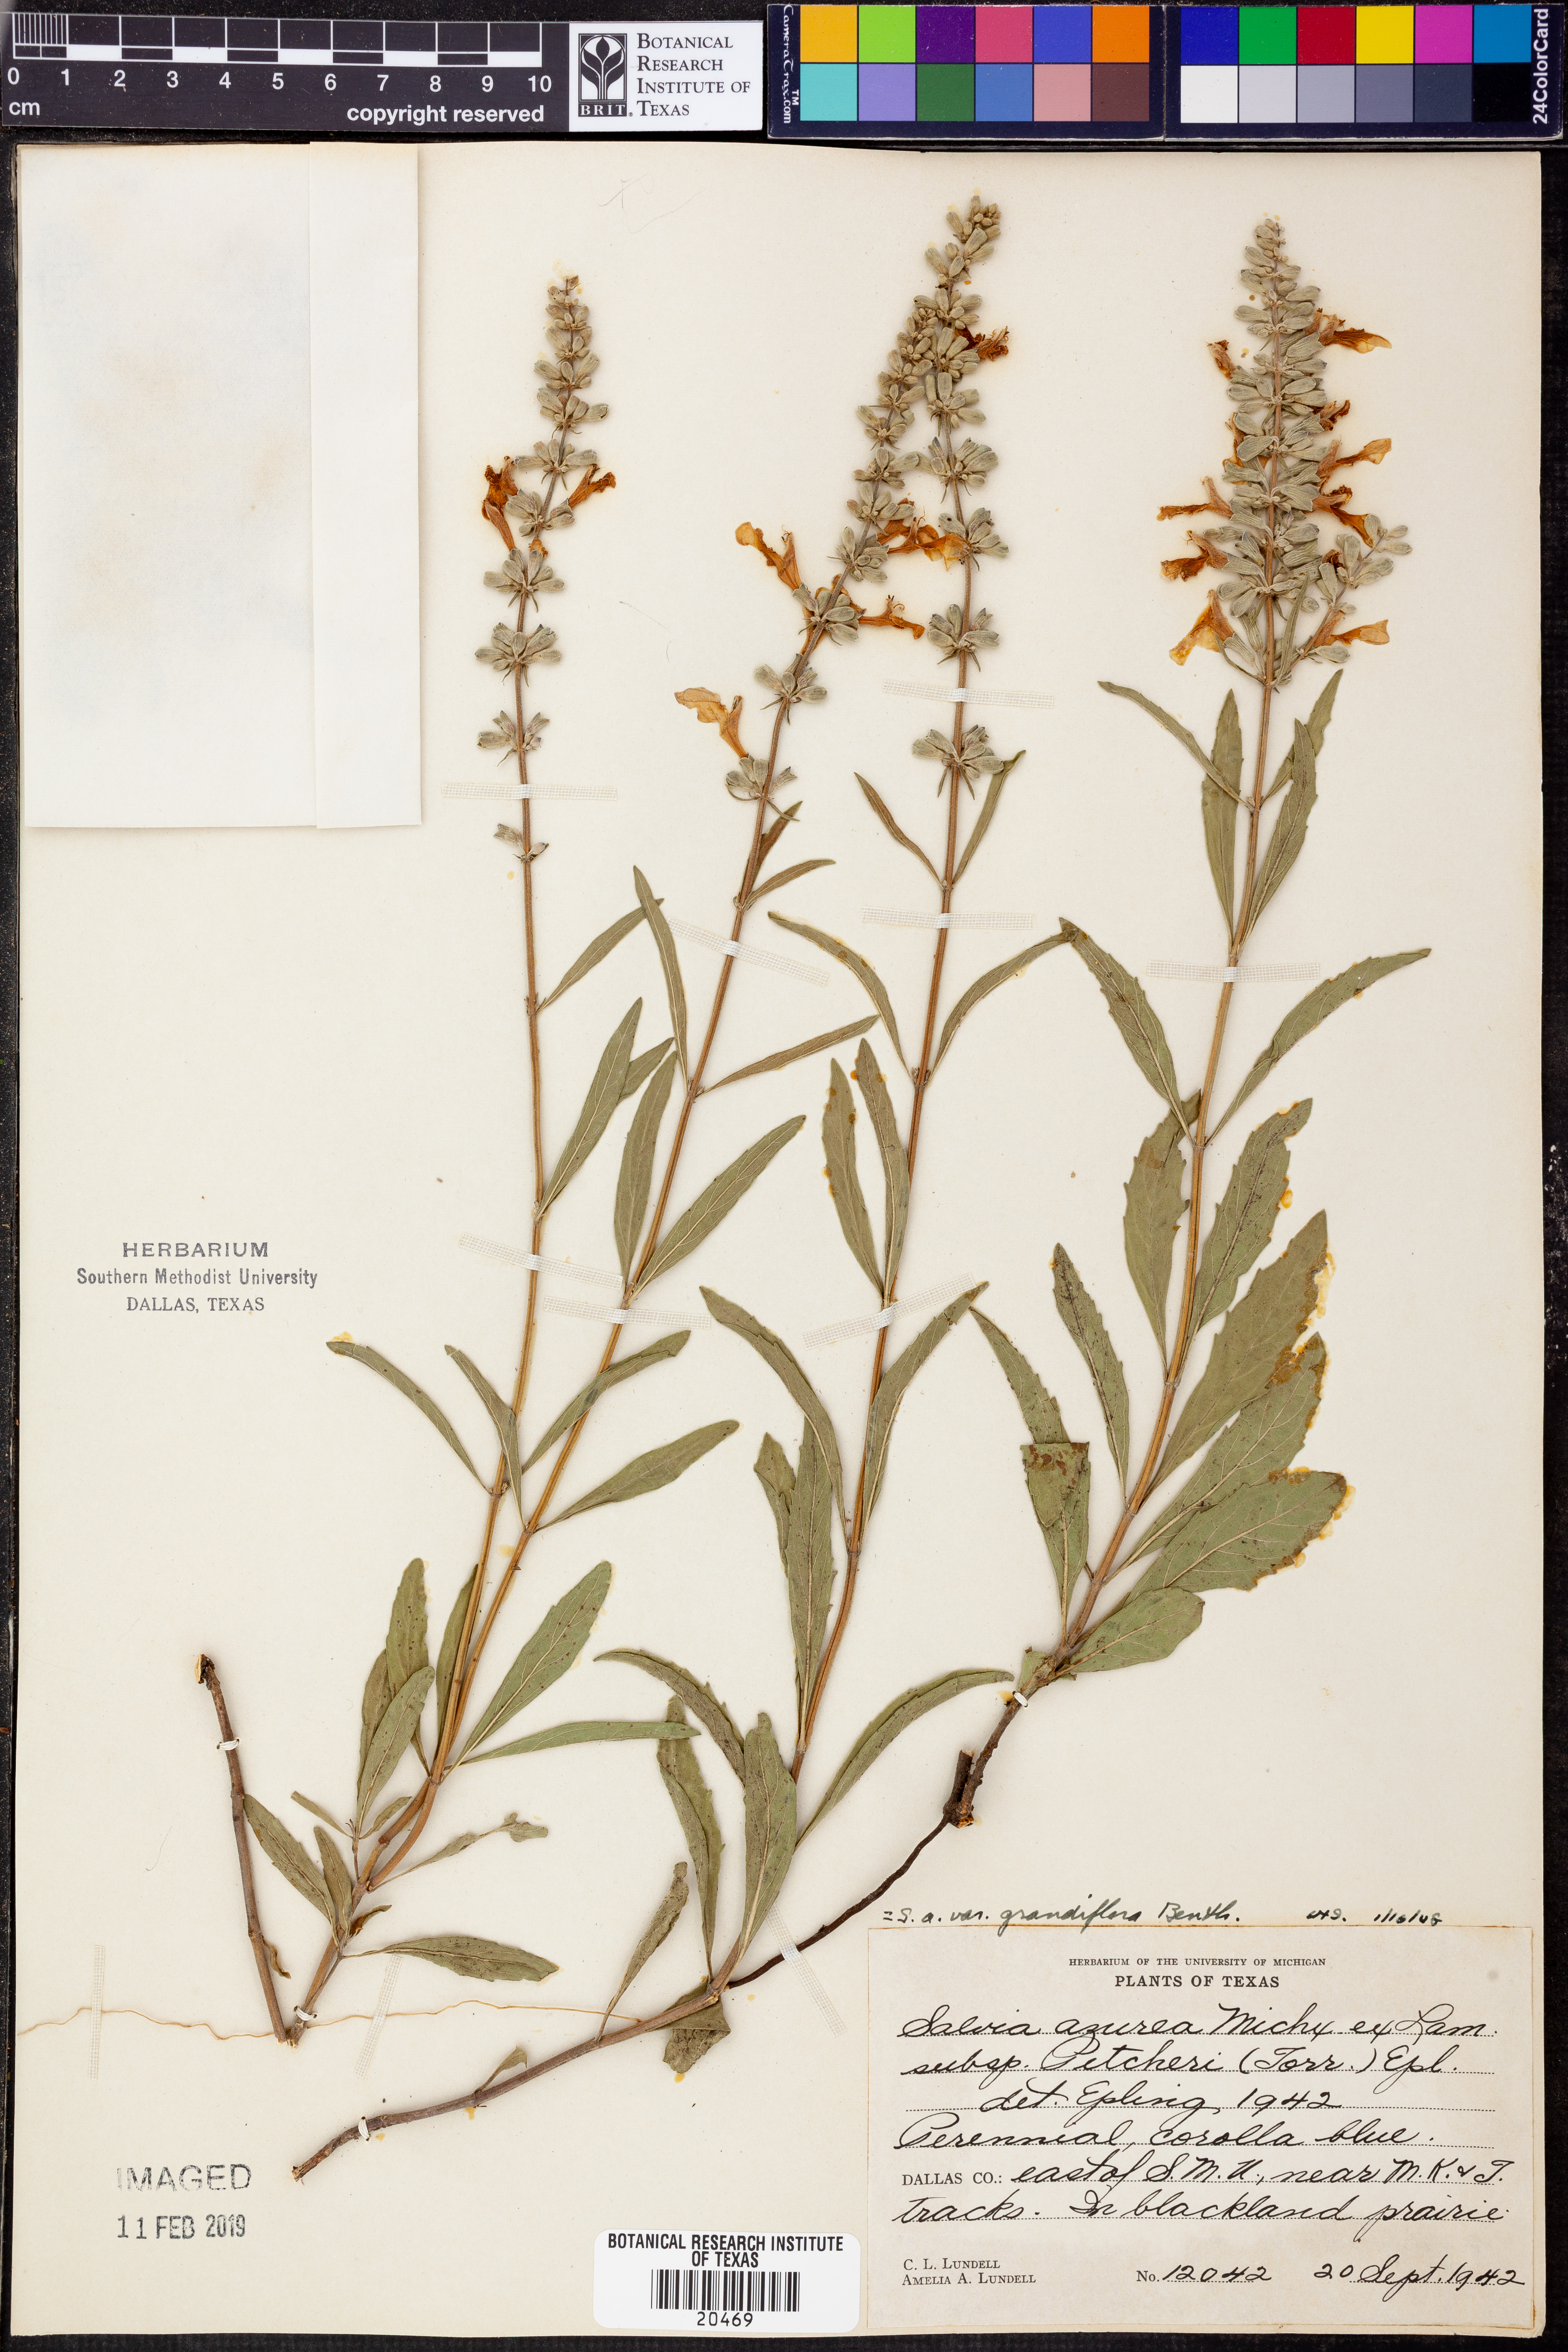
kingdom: Plantae
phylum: Tracheophyta
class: Magnoliopsida
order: Lamiales
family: Lamiaceae
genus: Salvia
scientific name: Salvia azurea
